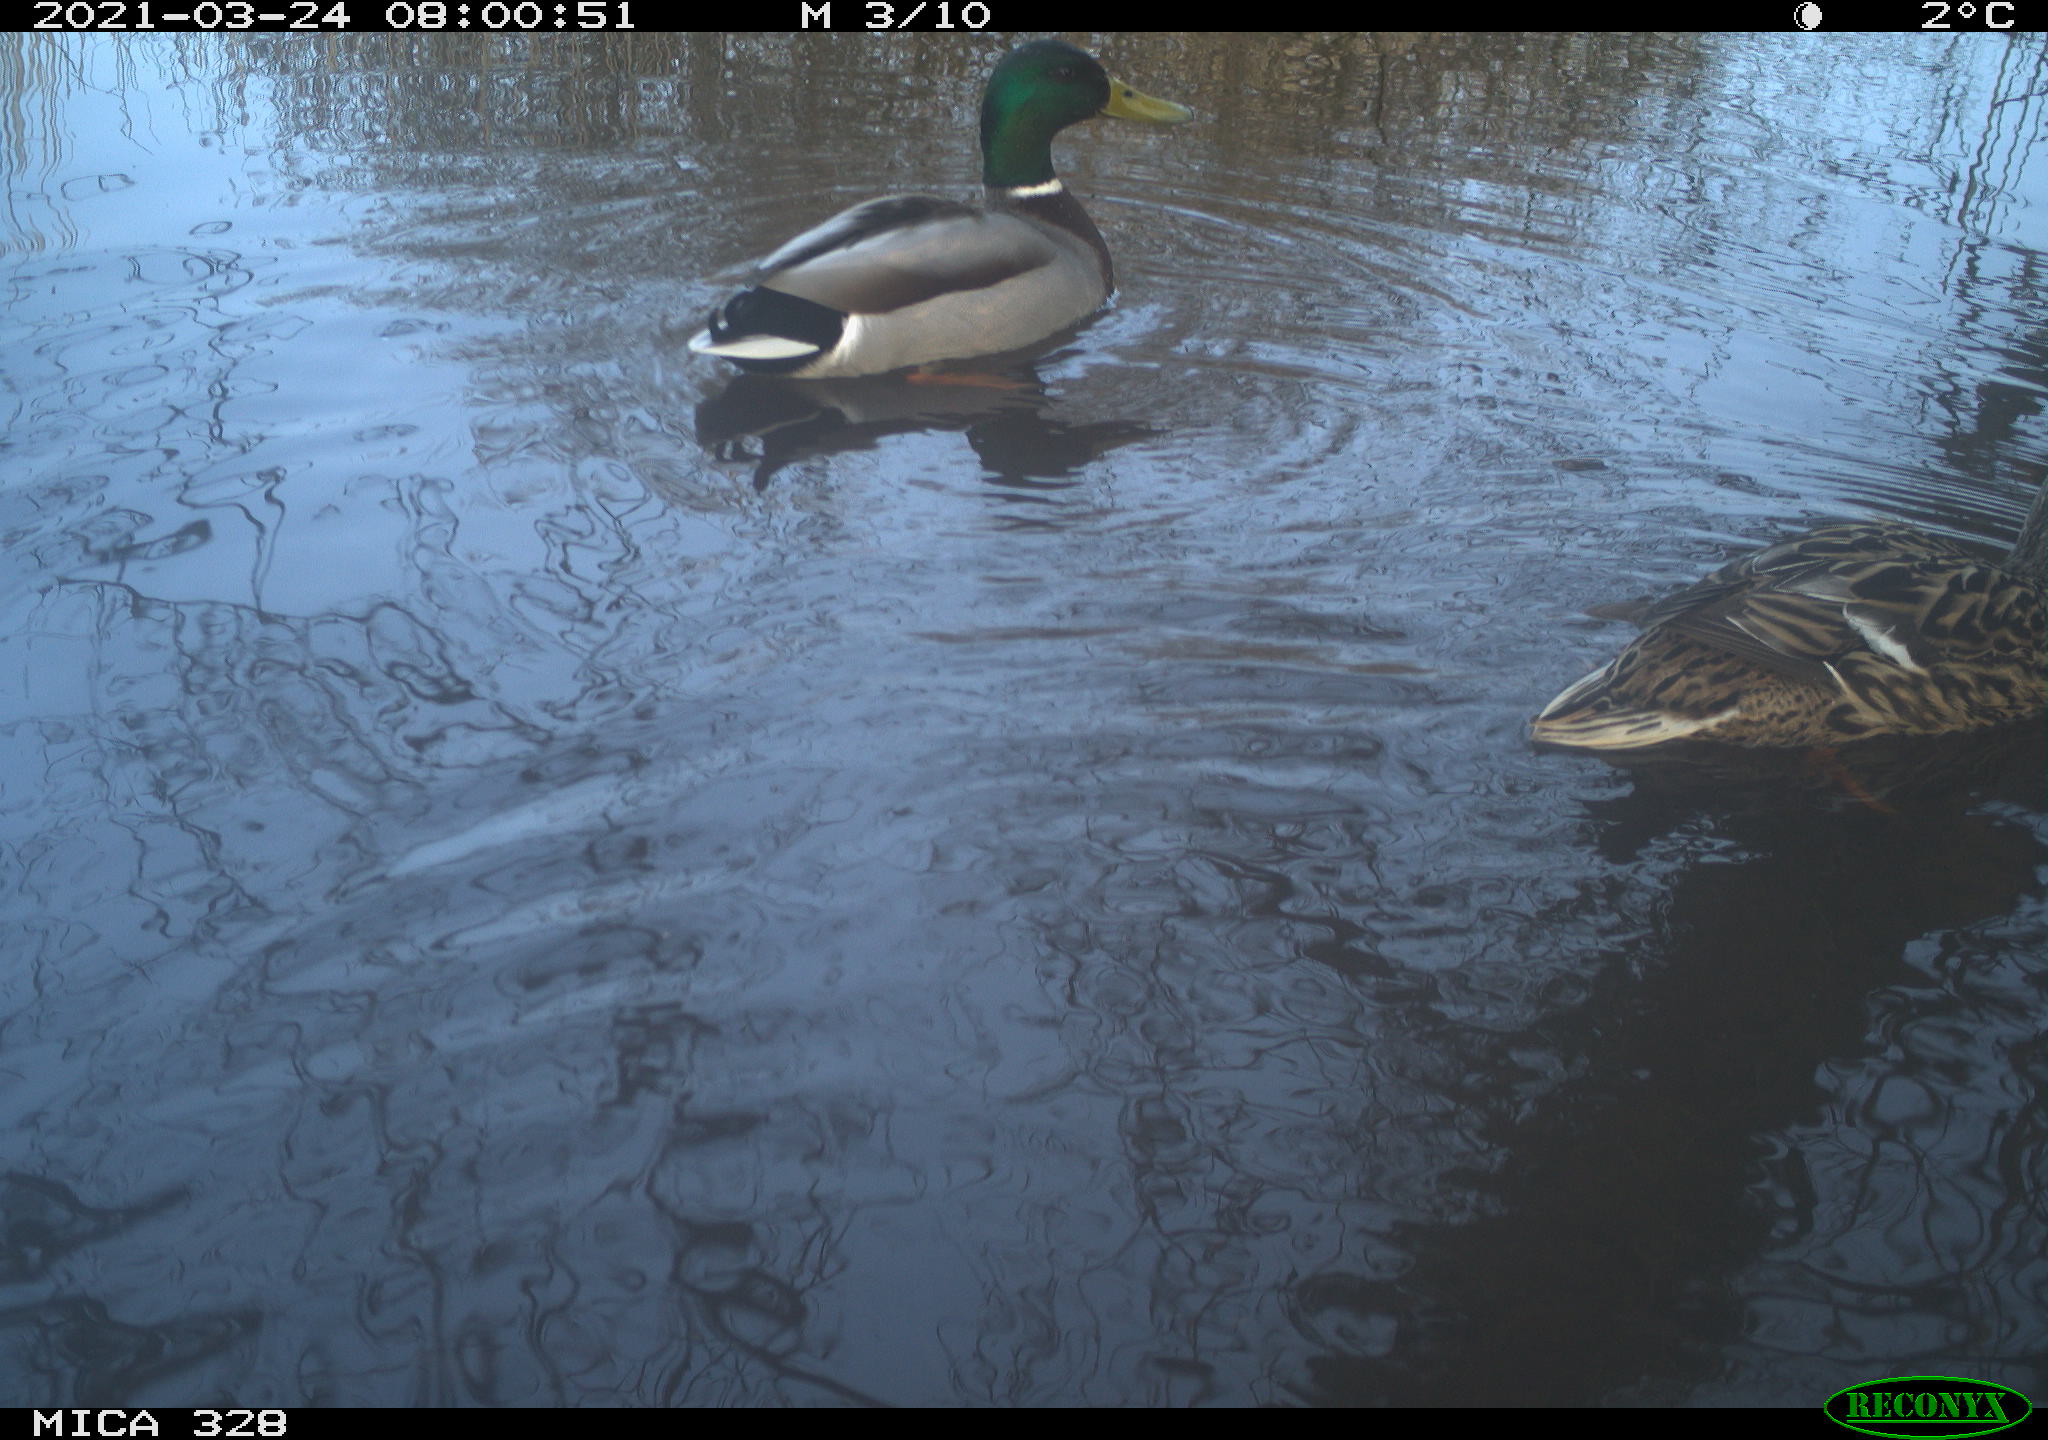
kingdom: Animalia
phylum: Chordata
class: Aves
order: Anseriformes
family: Anatidae
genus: Anas
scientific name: Anas platyrhynchos
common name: Mallard
